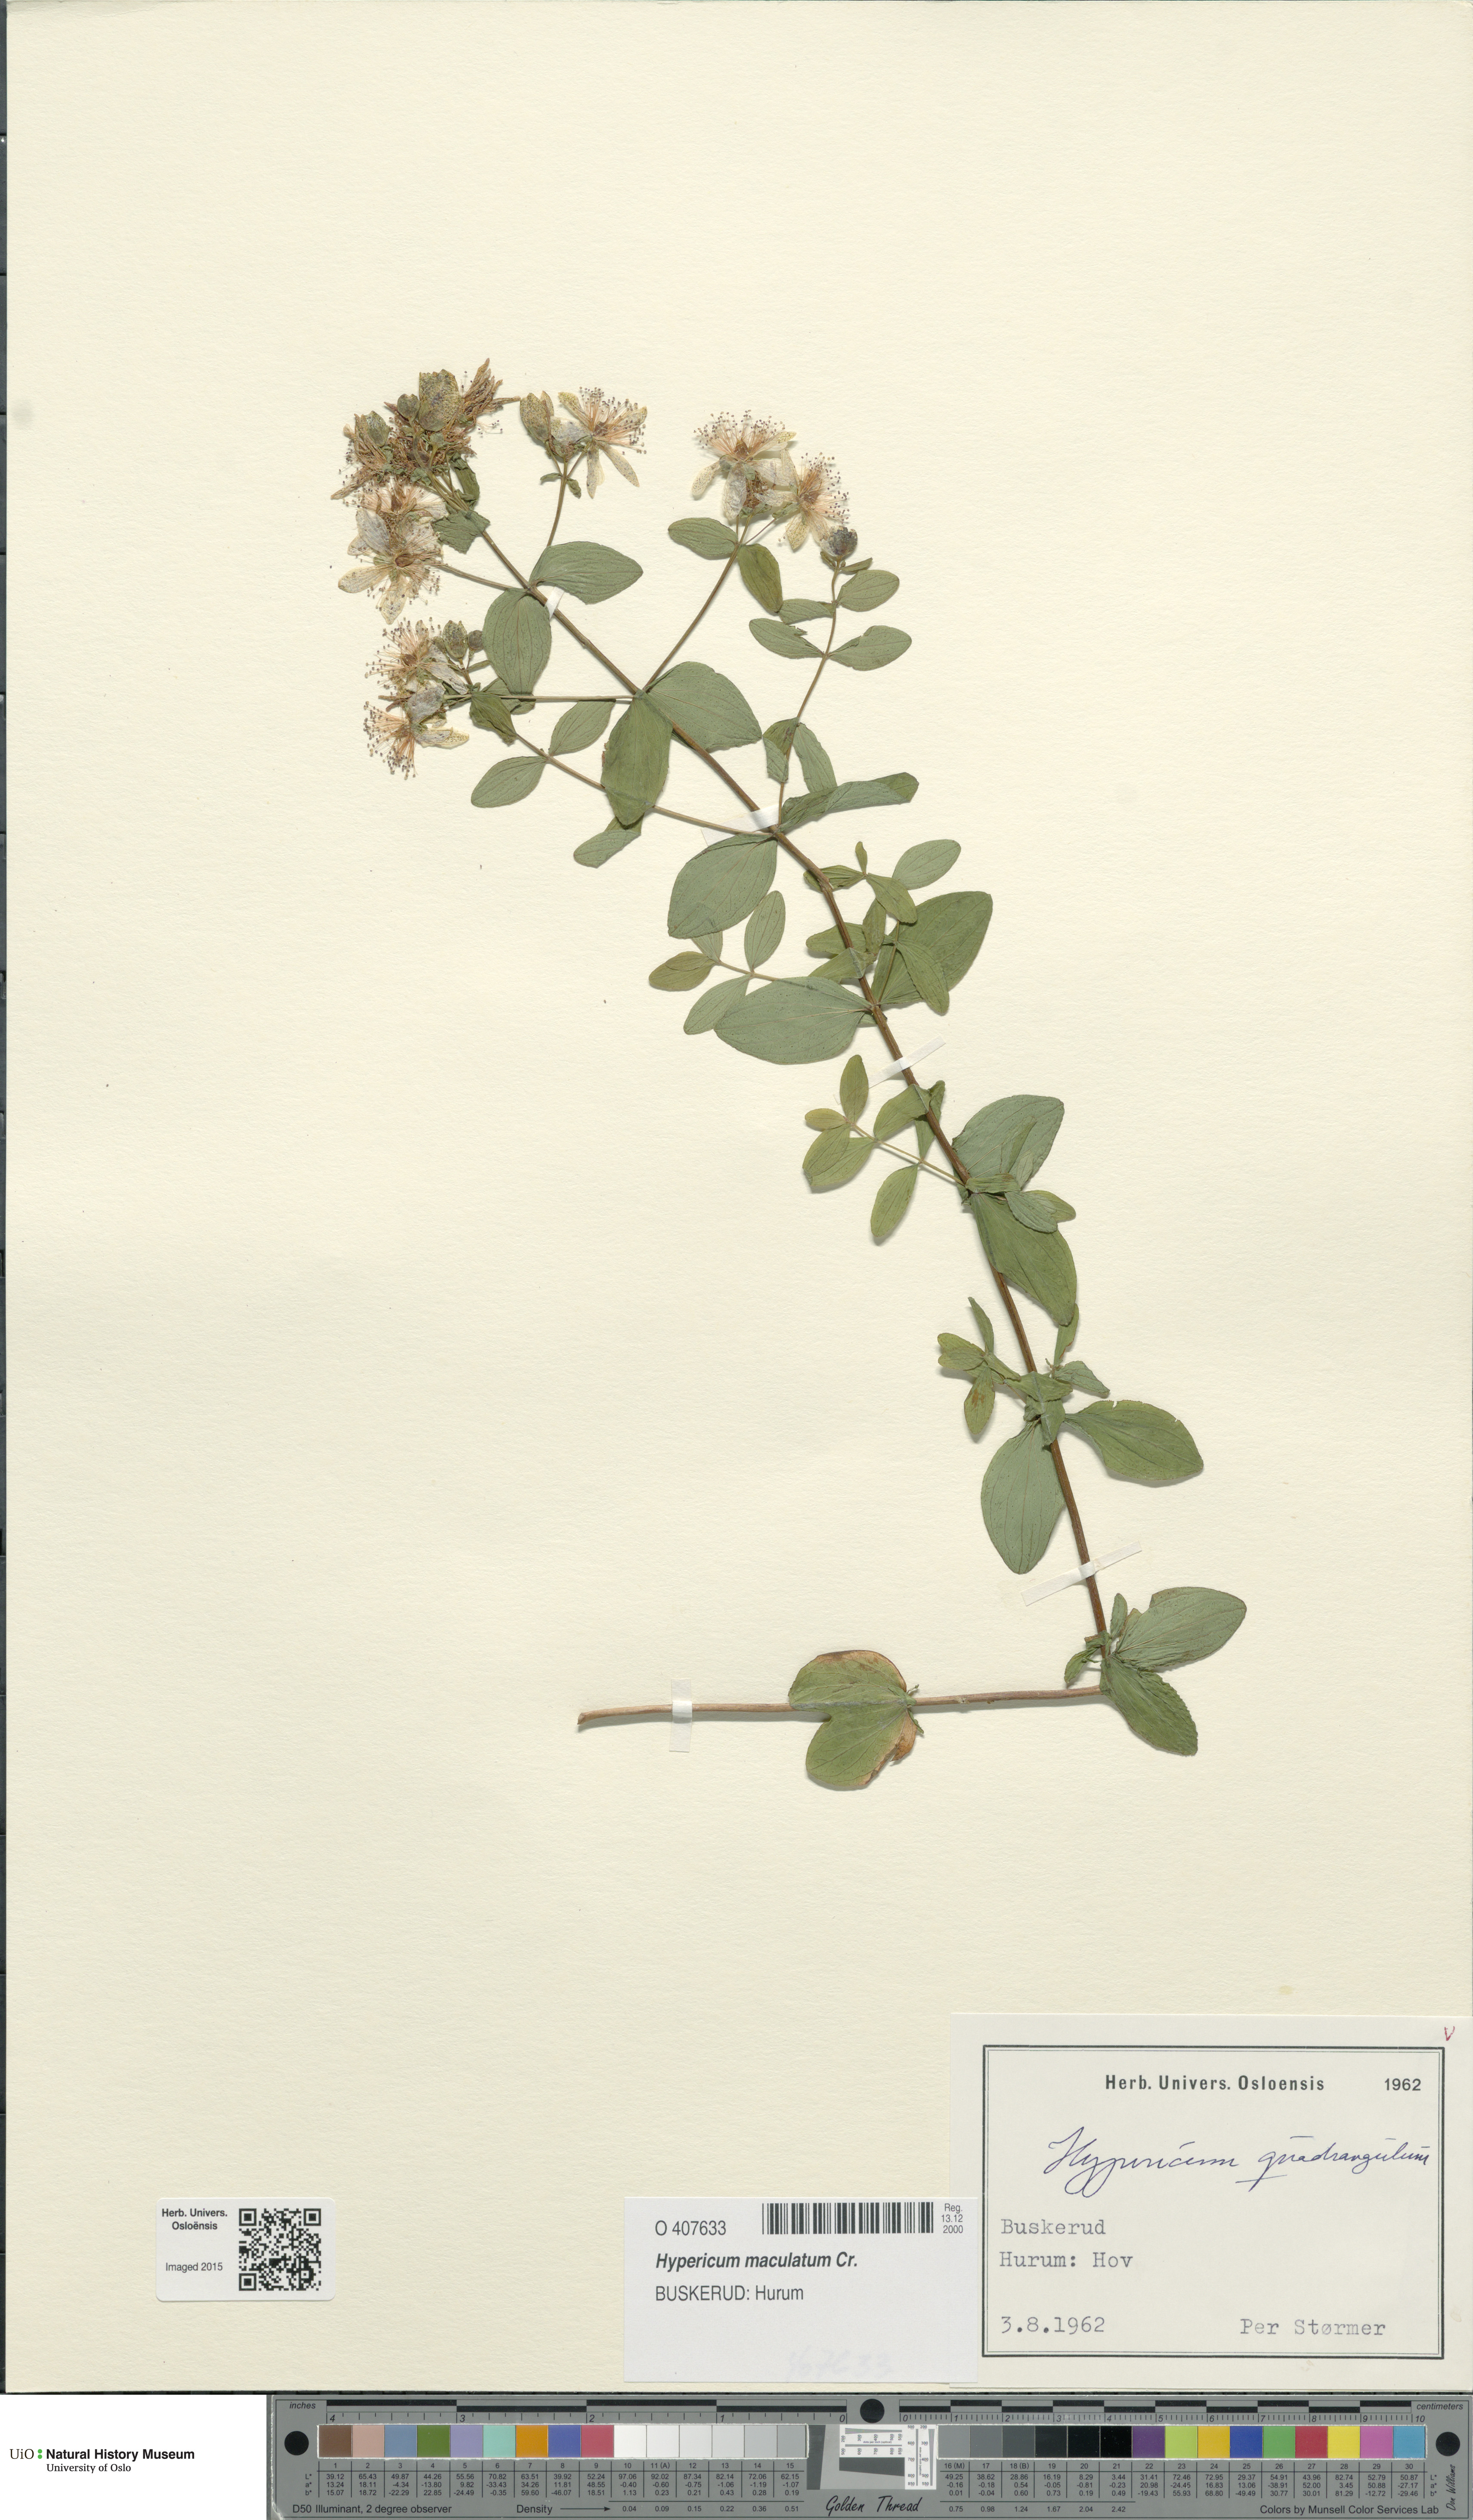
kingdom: Plantae
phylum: Tracheophyta
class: Magnoliopsida
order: Malpighiales
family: Hypericaceae
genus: Hypericum
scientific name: Hypericum maculatum
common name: Imperforate st. john's-wort
